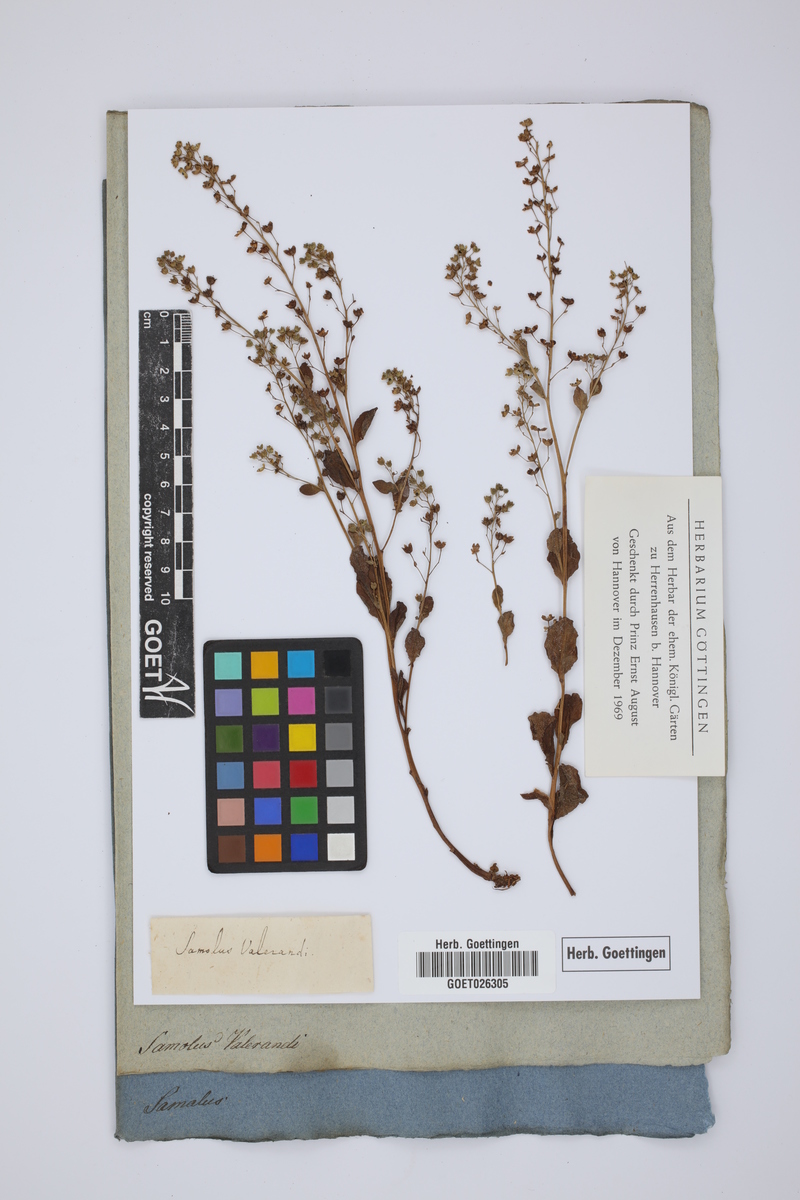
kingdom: Plantae
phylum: Tracheophyta
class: Magnoliopsida
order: Ericales
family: Primulaceae
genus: Samolus
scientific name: Samolus valerandi
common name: Brookweed
